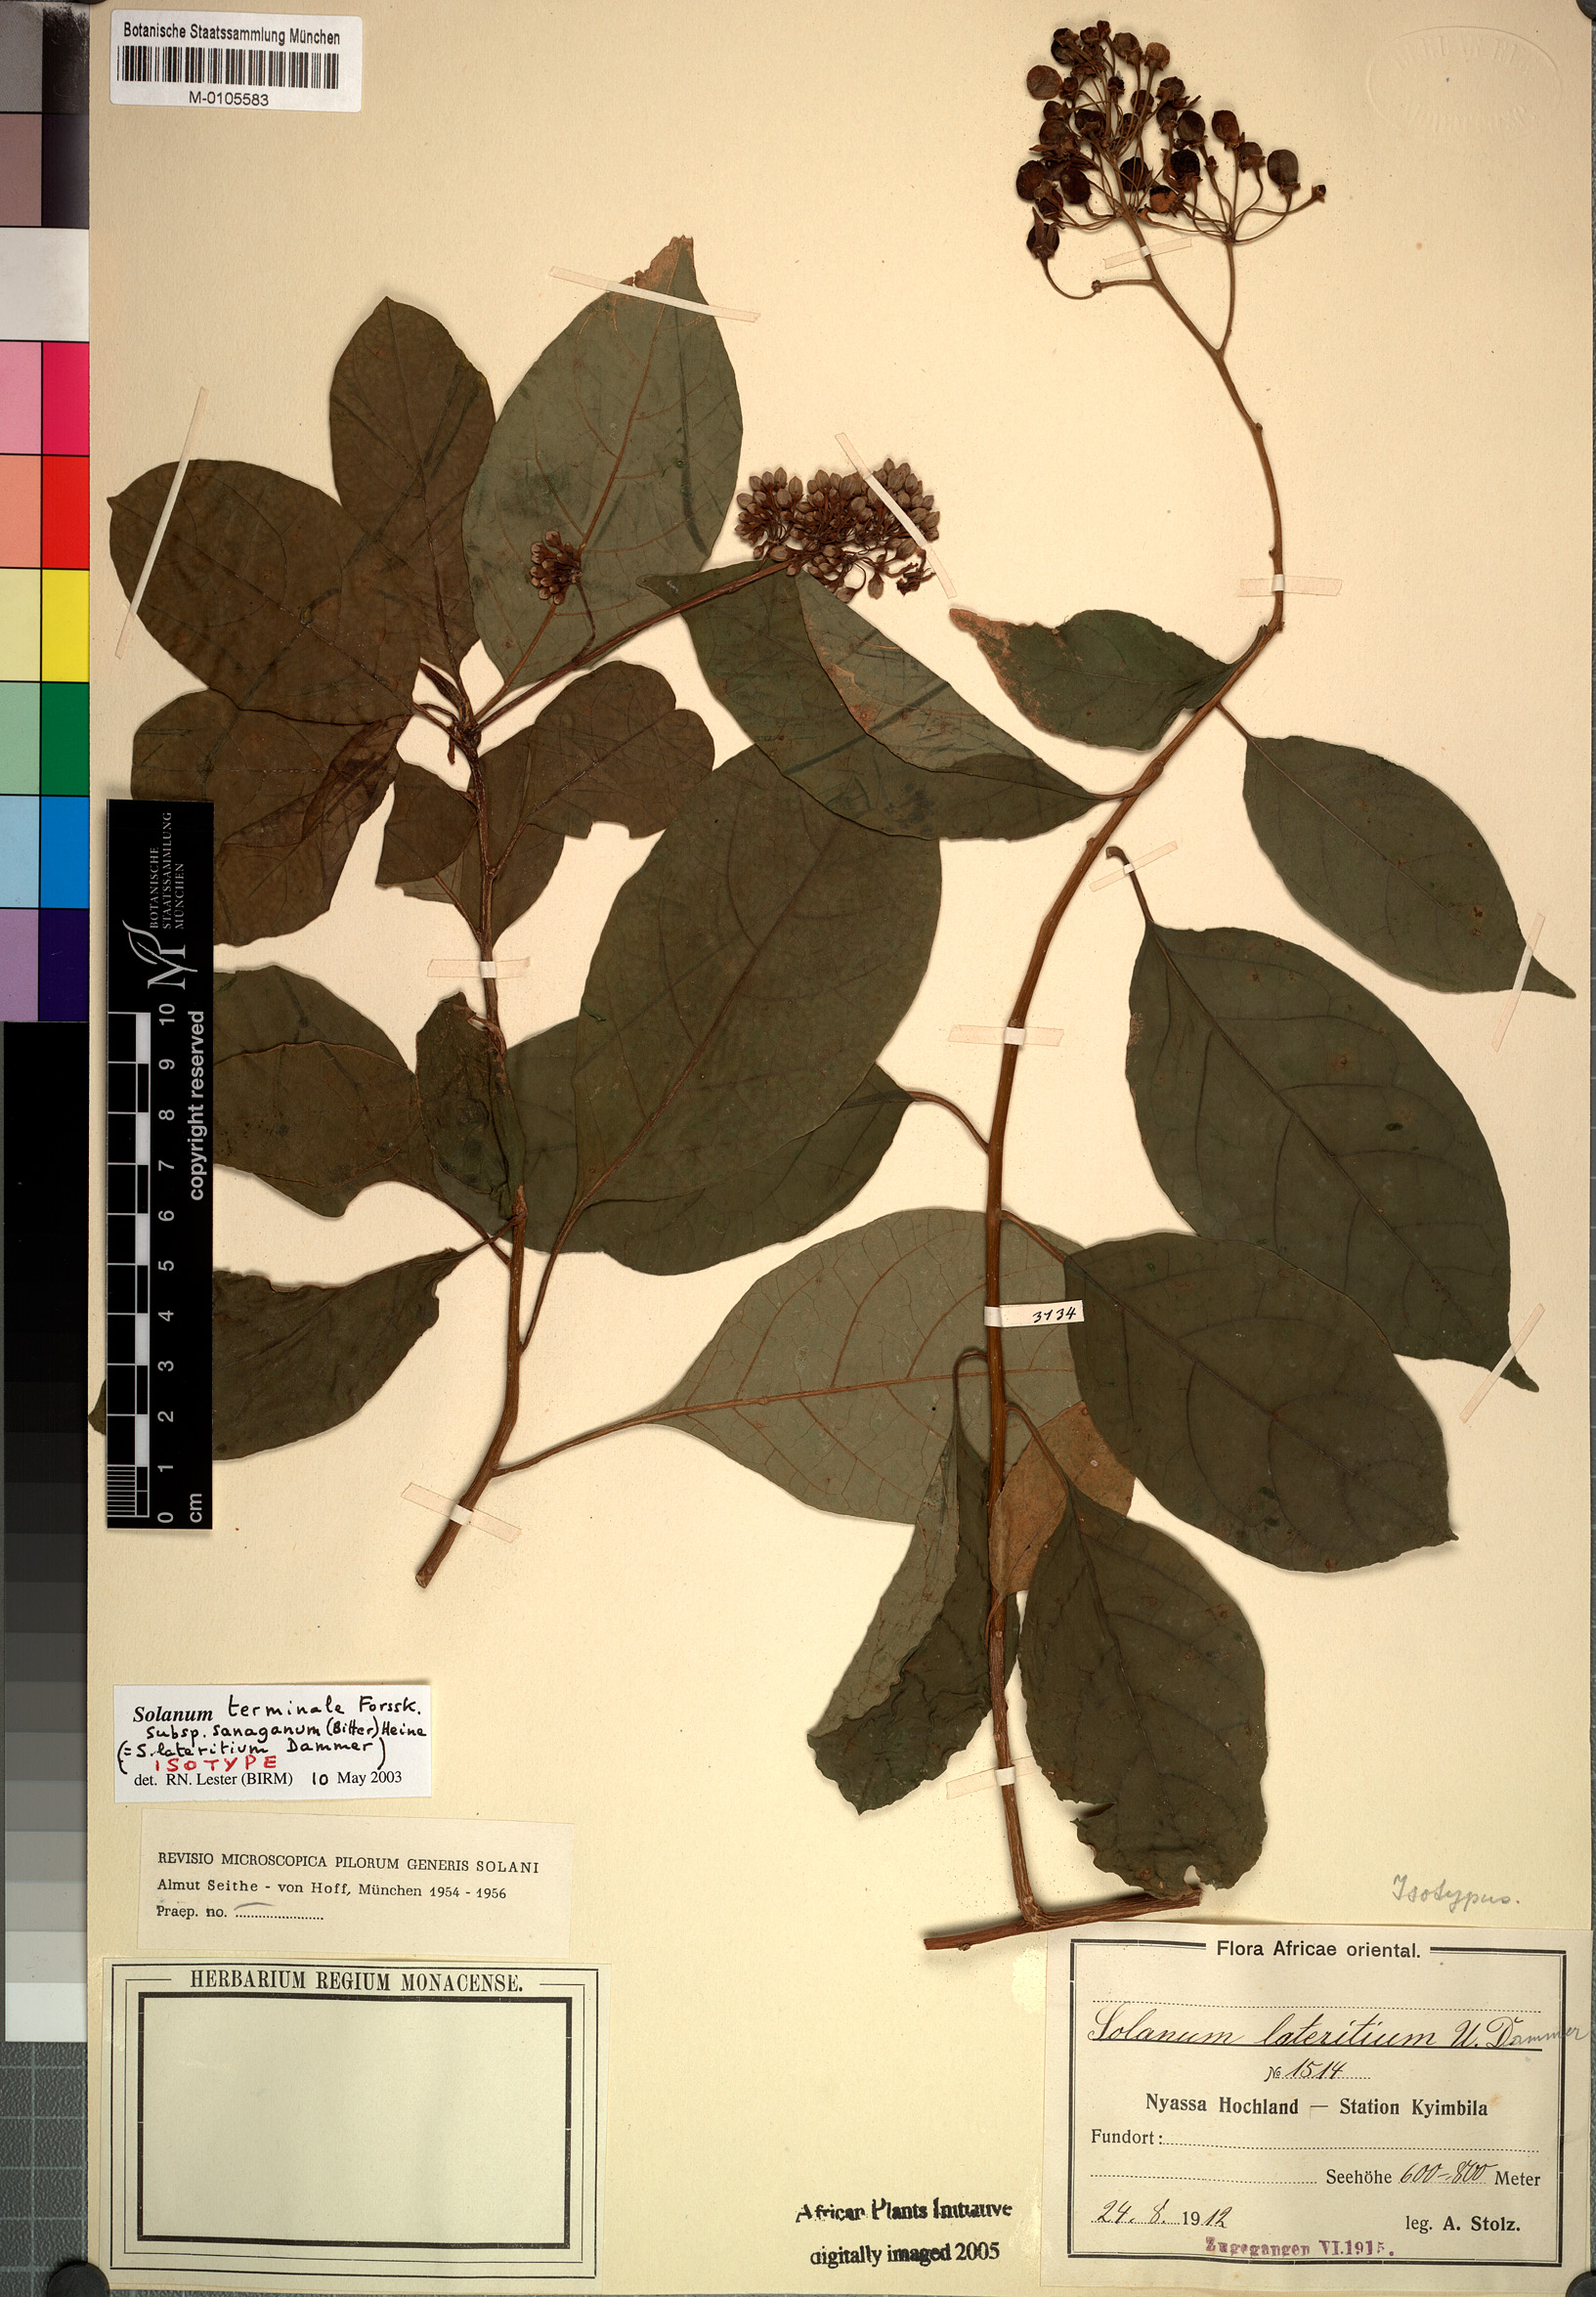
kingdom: Plantae
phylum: Tracheophyta
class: Magnoliopsida
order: Solanales
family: Solanaceae
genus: Solanum
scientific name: Solanum terminale
